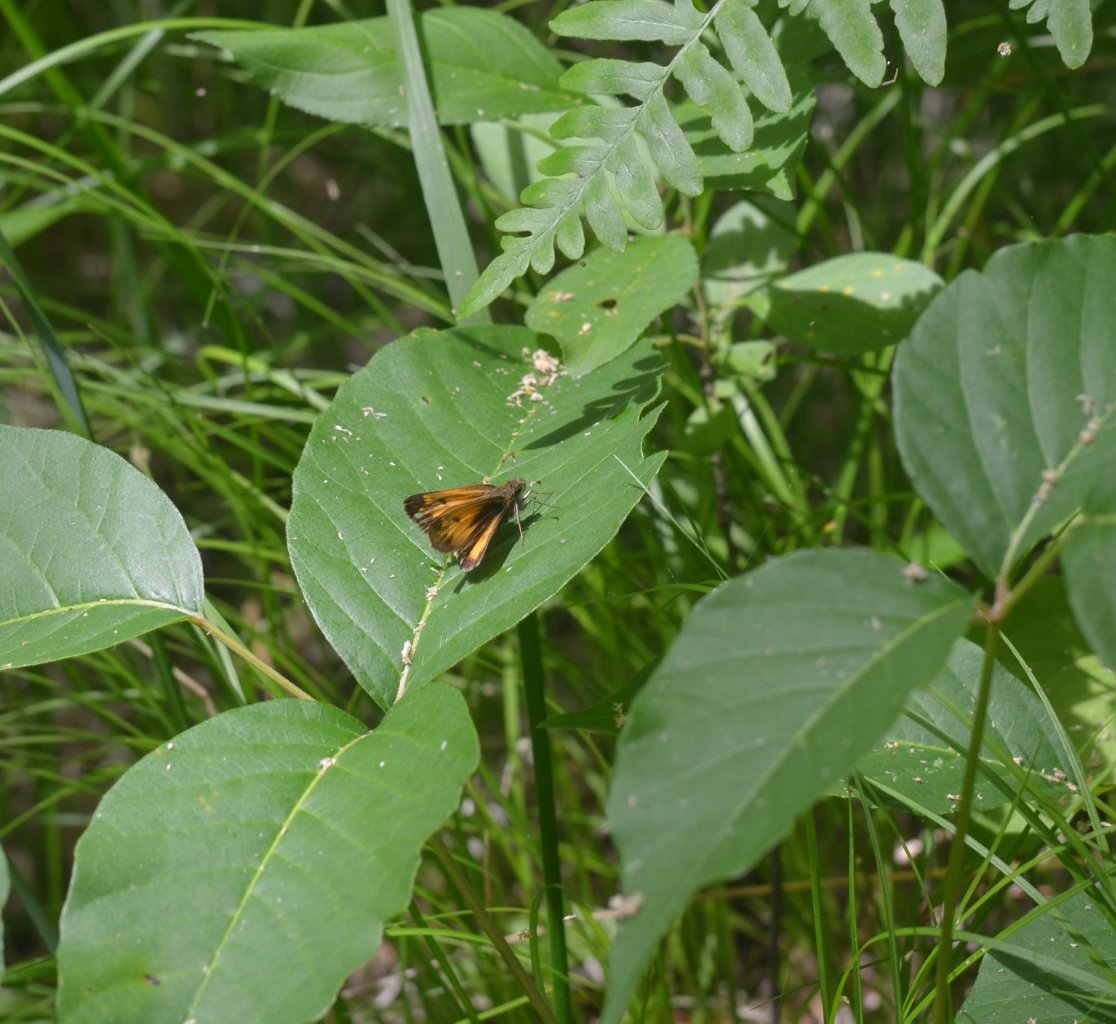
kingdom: Animalia
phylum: Arthropoda
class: Insecta
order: Lepidoptera
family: Hesperiidae
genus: Lon
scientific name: Lon hobomok
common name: Hobomok Skipper
